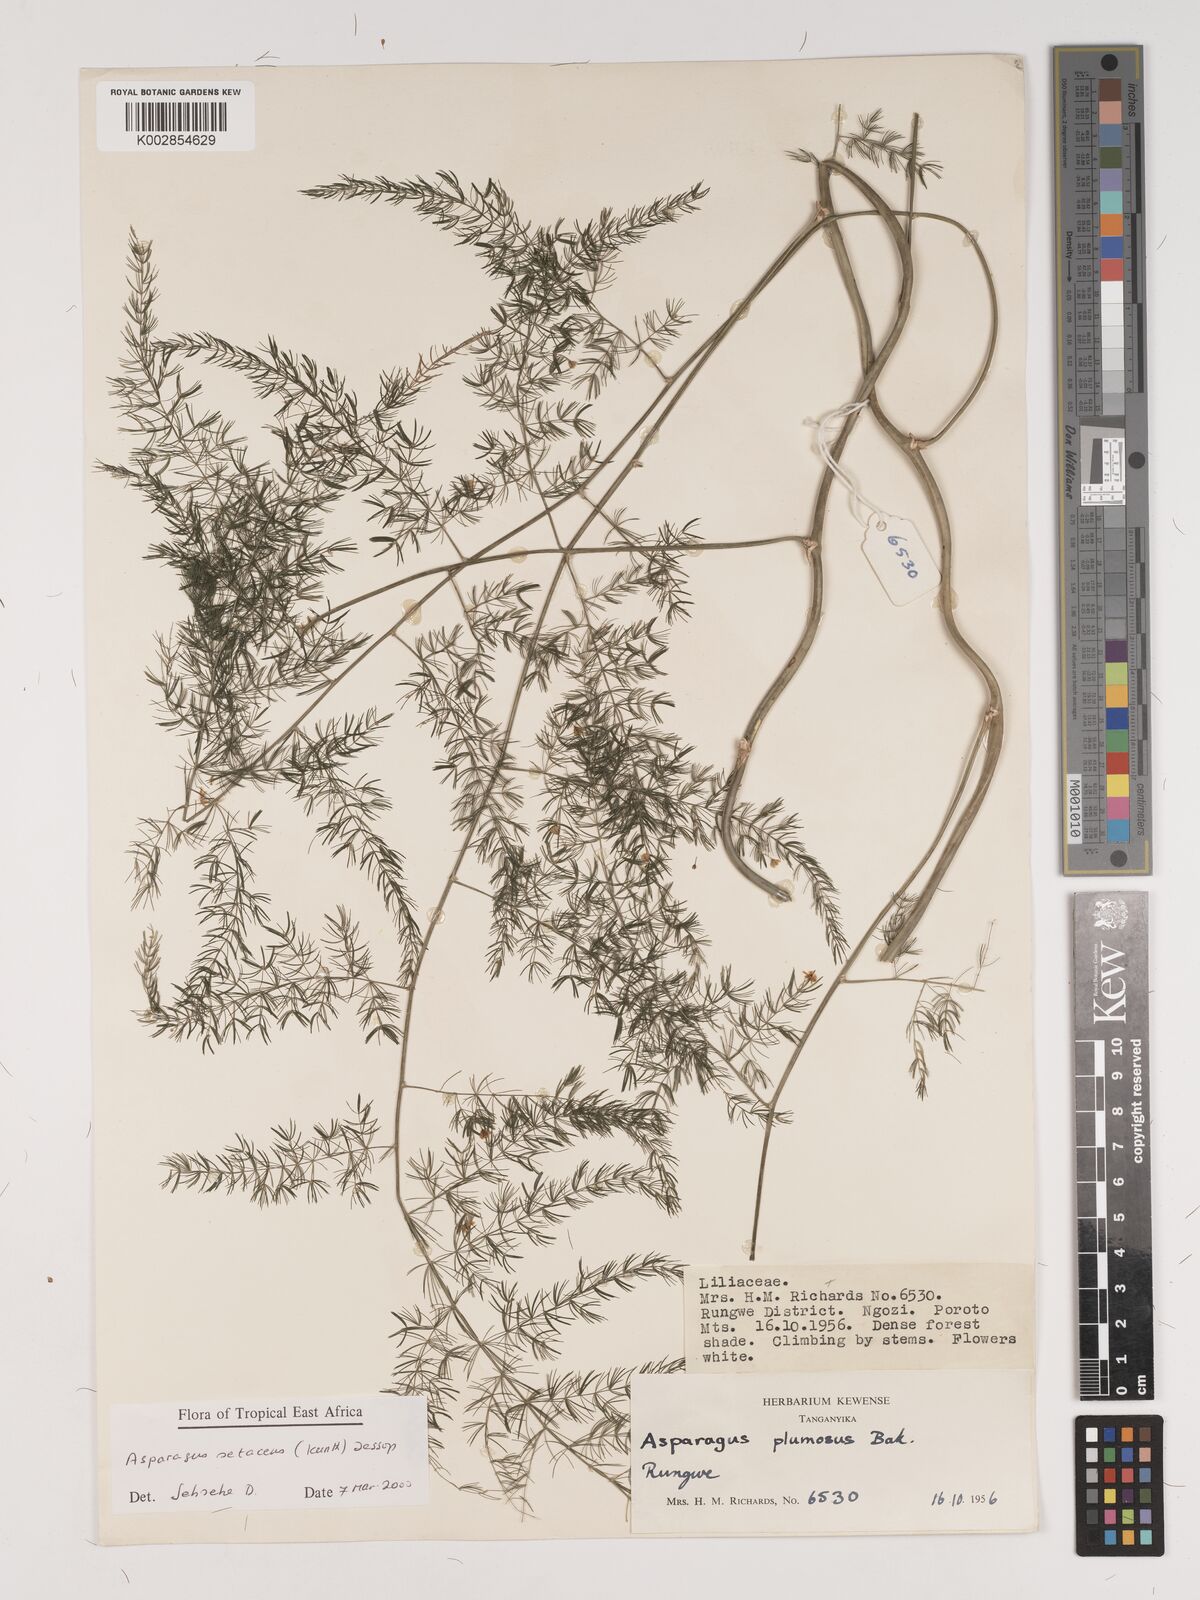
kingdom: Plantae
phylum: Tracheophyta
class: Liliopsida
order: Asparagales
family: Asparagaceae
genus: Asparagus
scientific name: Asparagus setaceus
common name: Common asparagus fern
